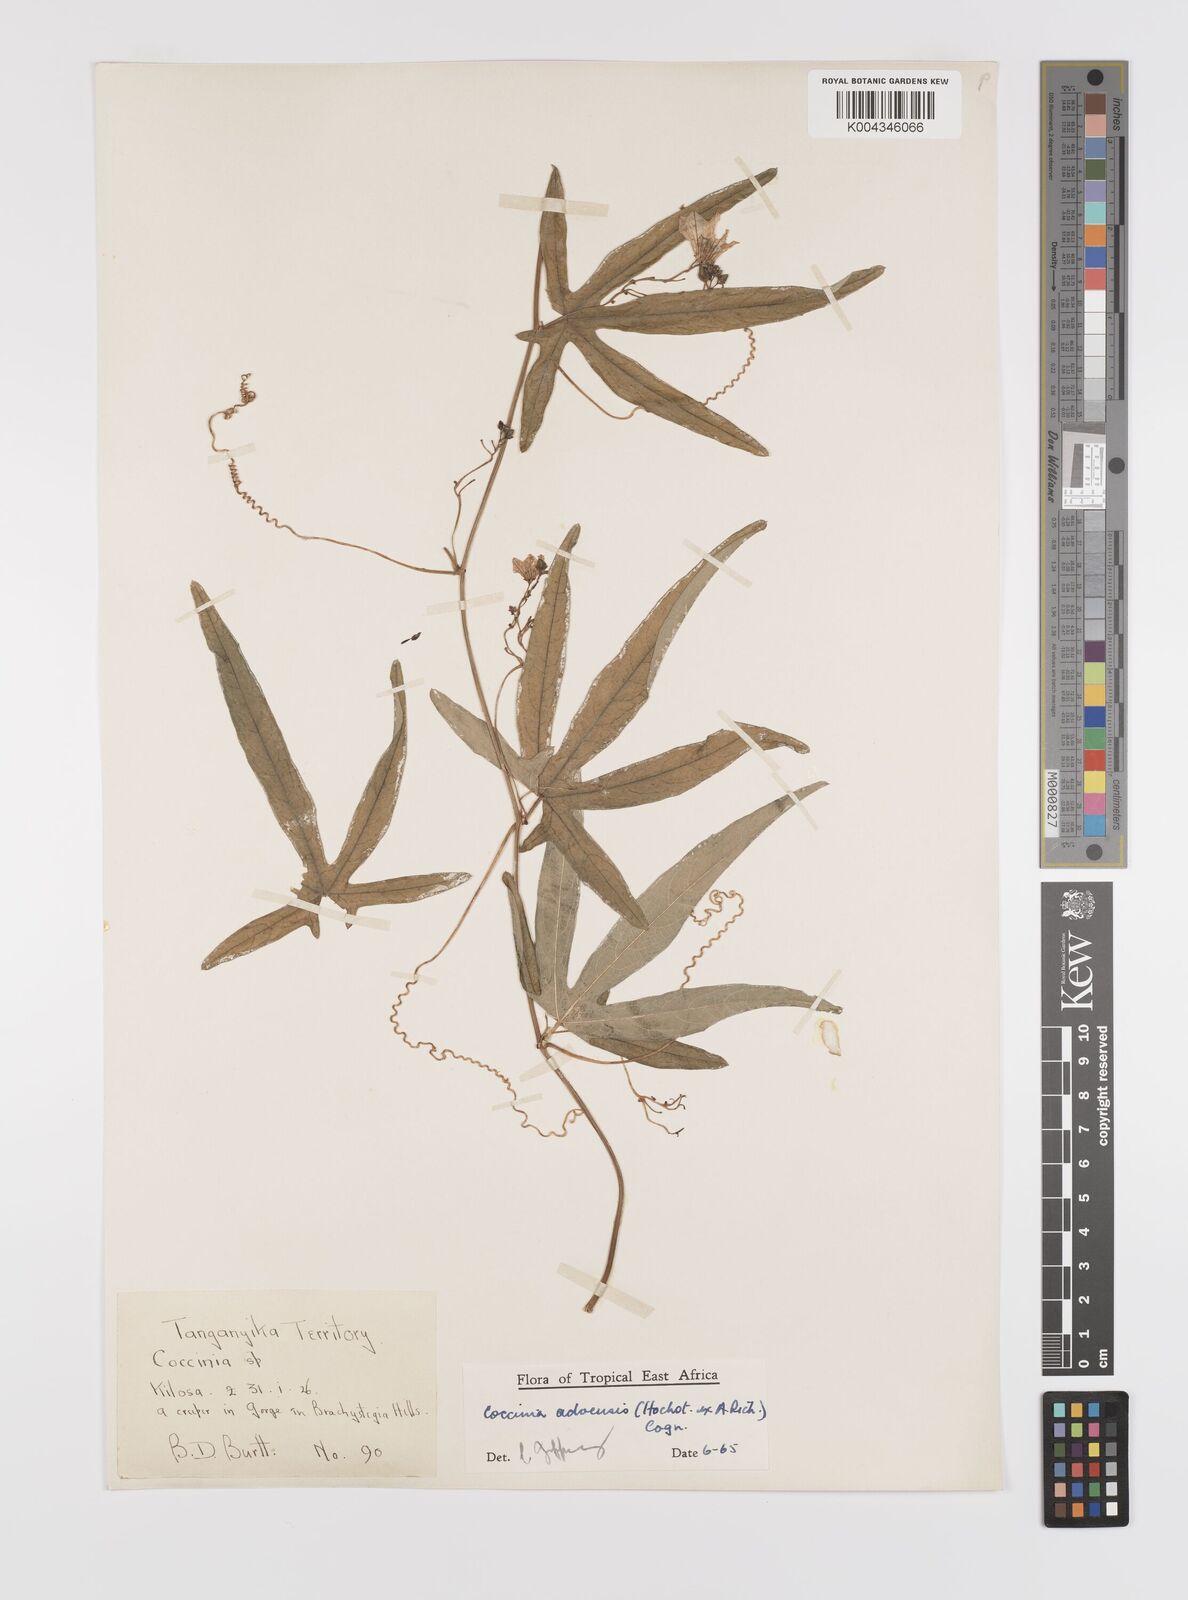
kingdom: Plantae
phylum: Tracheophyta
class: Magnoliopsida
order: Cucurbitales
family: Cucurbitaceae
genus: Coccinia
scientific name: Coccinia adoensis
